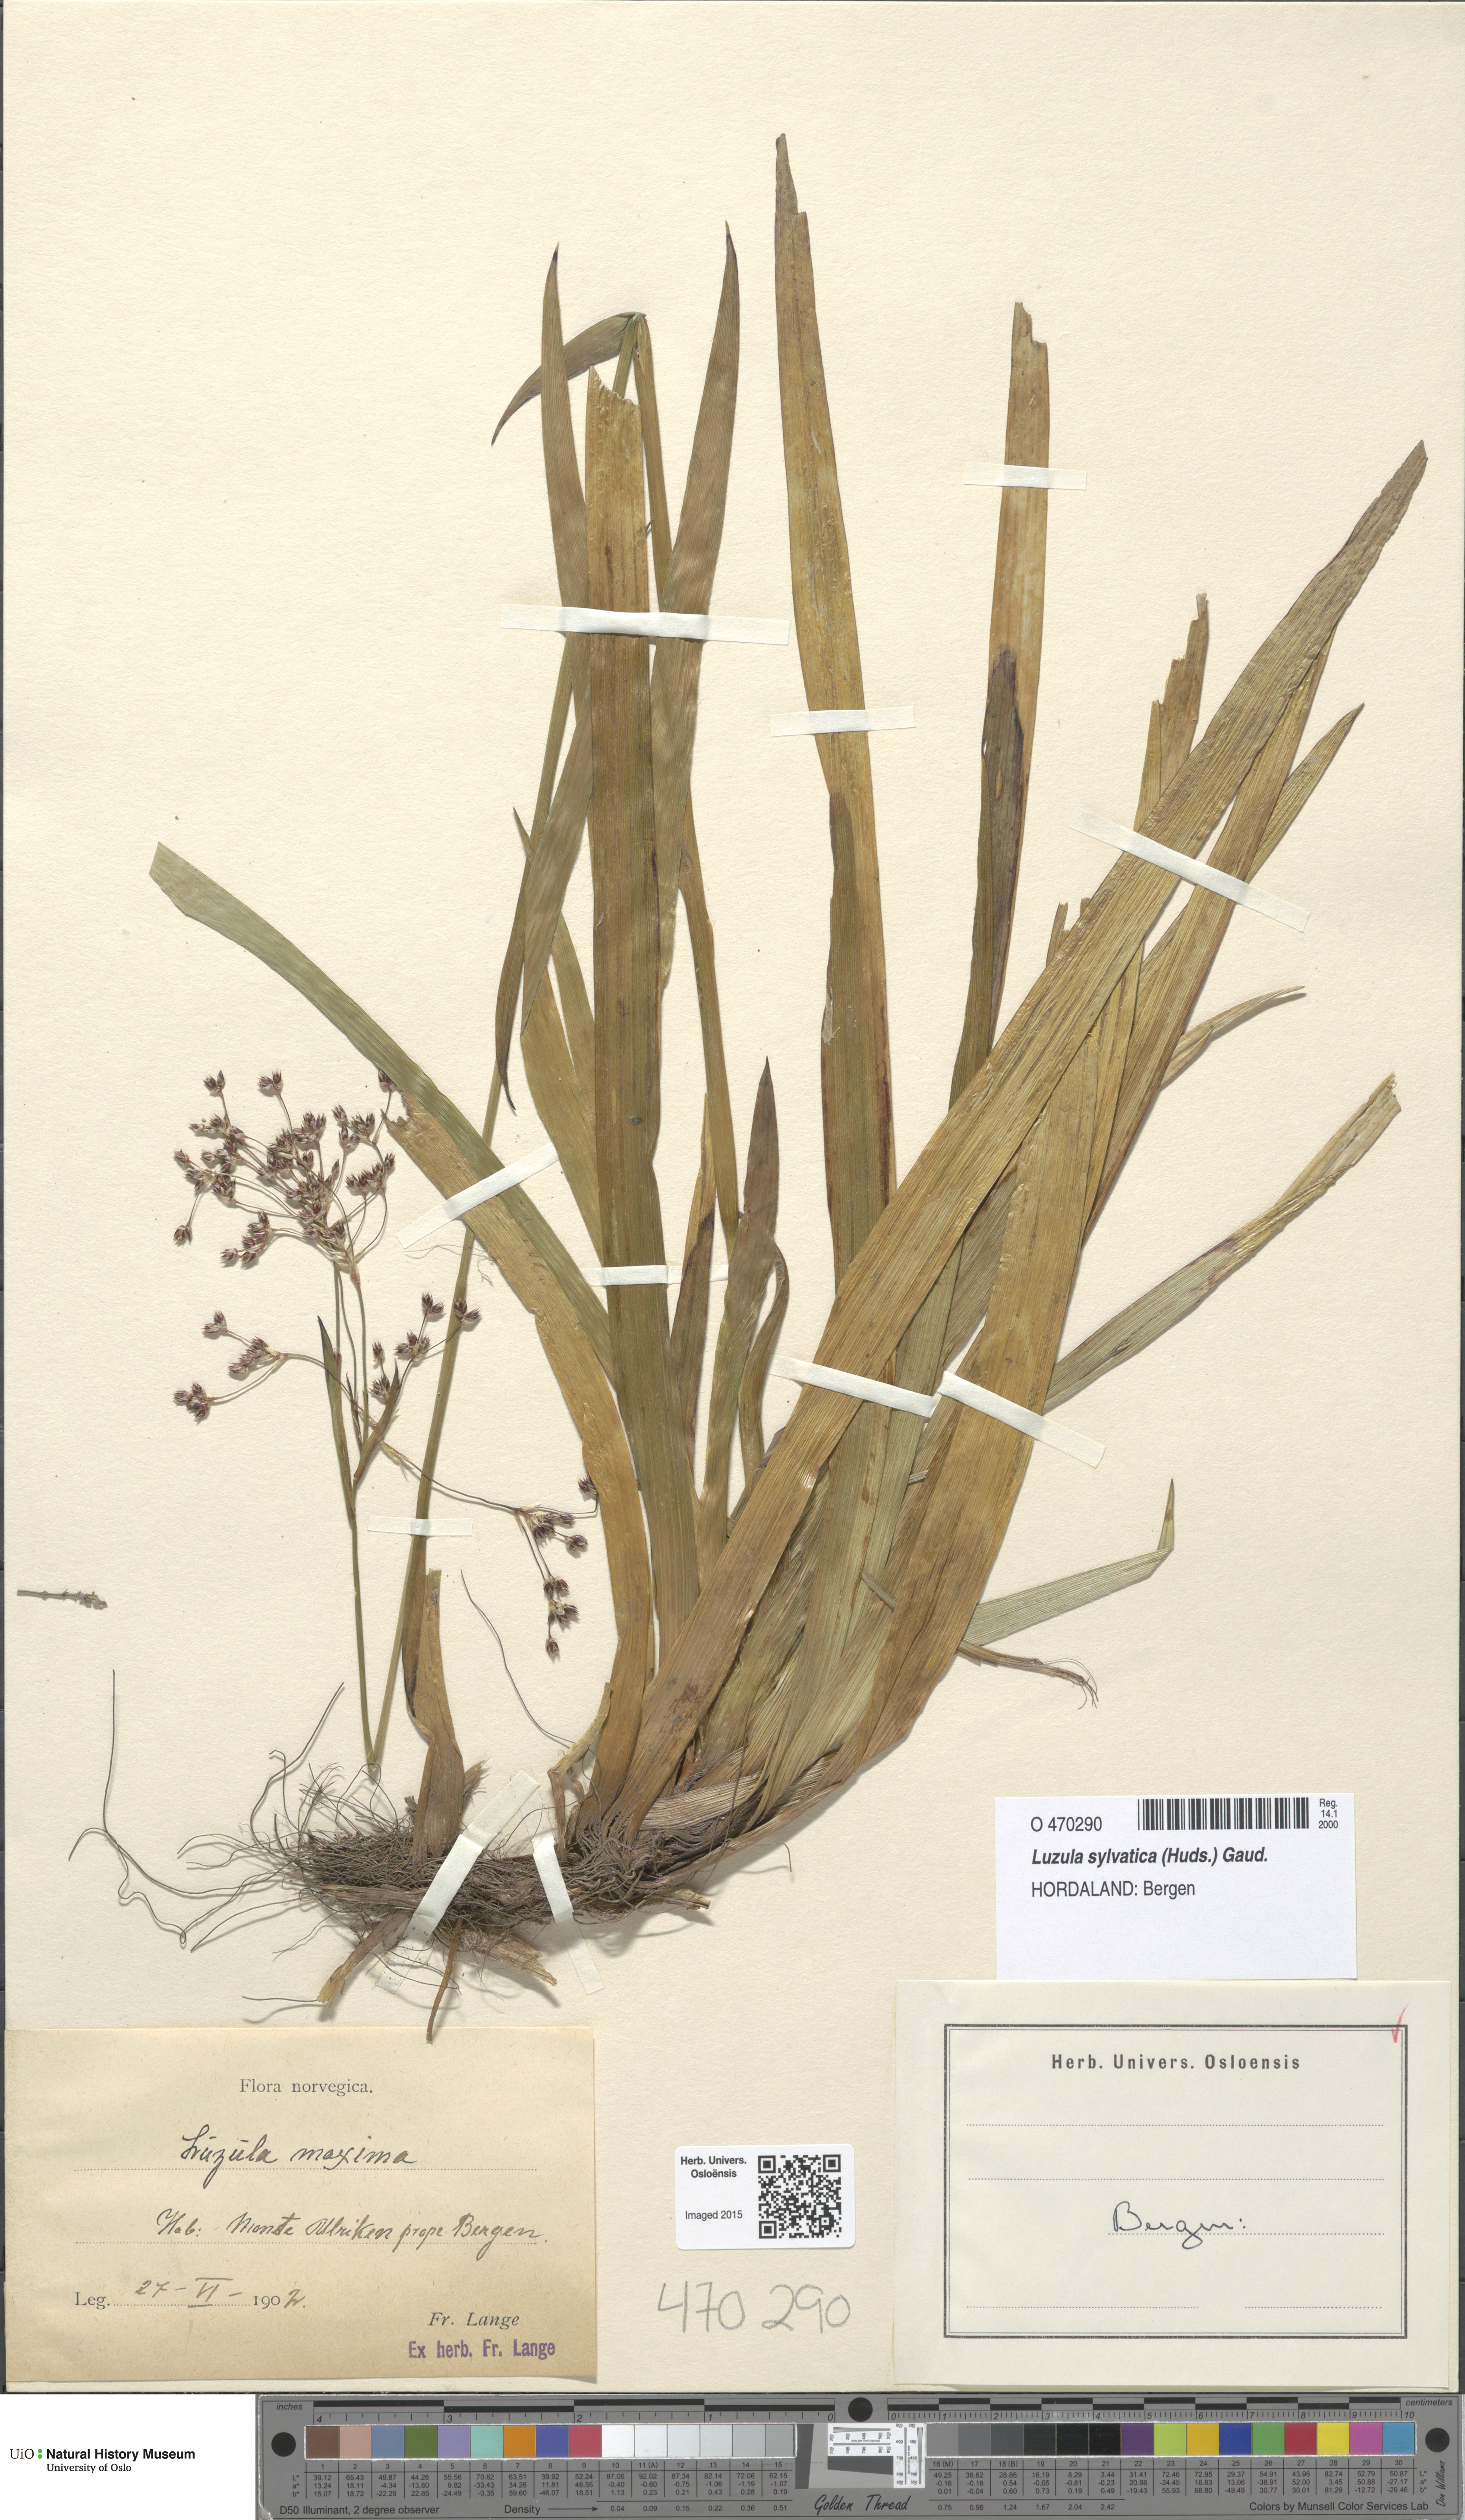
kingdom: Plantae
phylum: Tracheophyta
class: Liliopsida
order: Poales
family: Juncaceae
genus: Luzula
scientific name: Luzula sylvatica
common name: Great wood-rush
